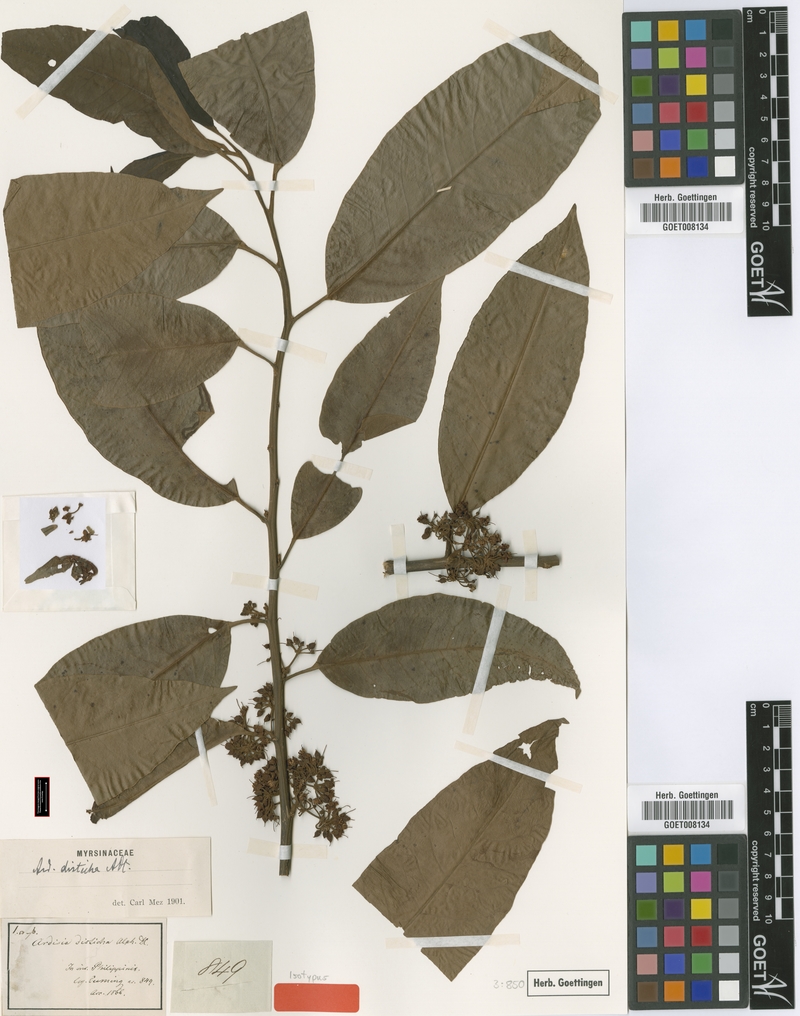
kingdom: Plantae
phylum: Tracheophyta
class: Magnoliopsida
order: Ericales
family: Primulaceae
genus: Ardisia
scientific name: Ardisia disticha
